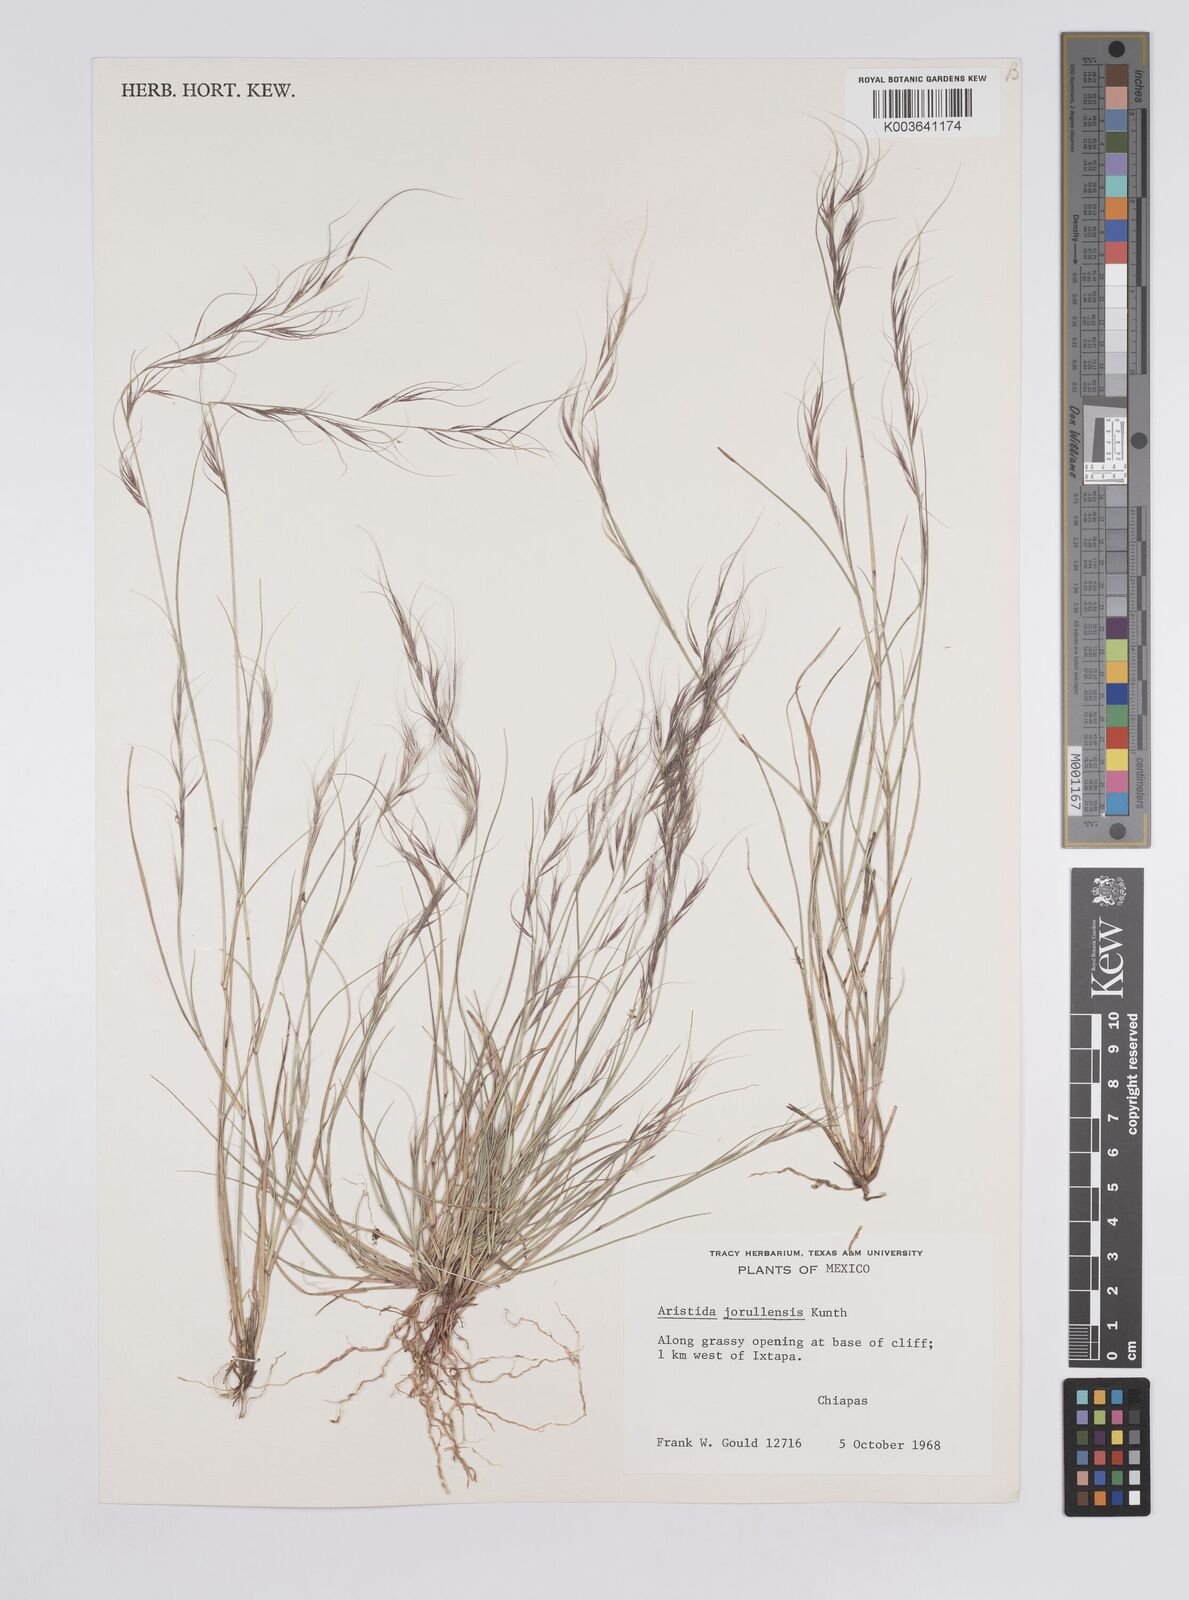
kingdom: Plantae
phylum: Tracheophyta
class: Liliopsida
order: Poales
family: Poaceae
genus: Aristida
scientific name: Aristida jorullensis
